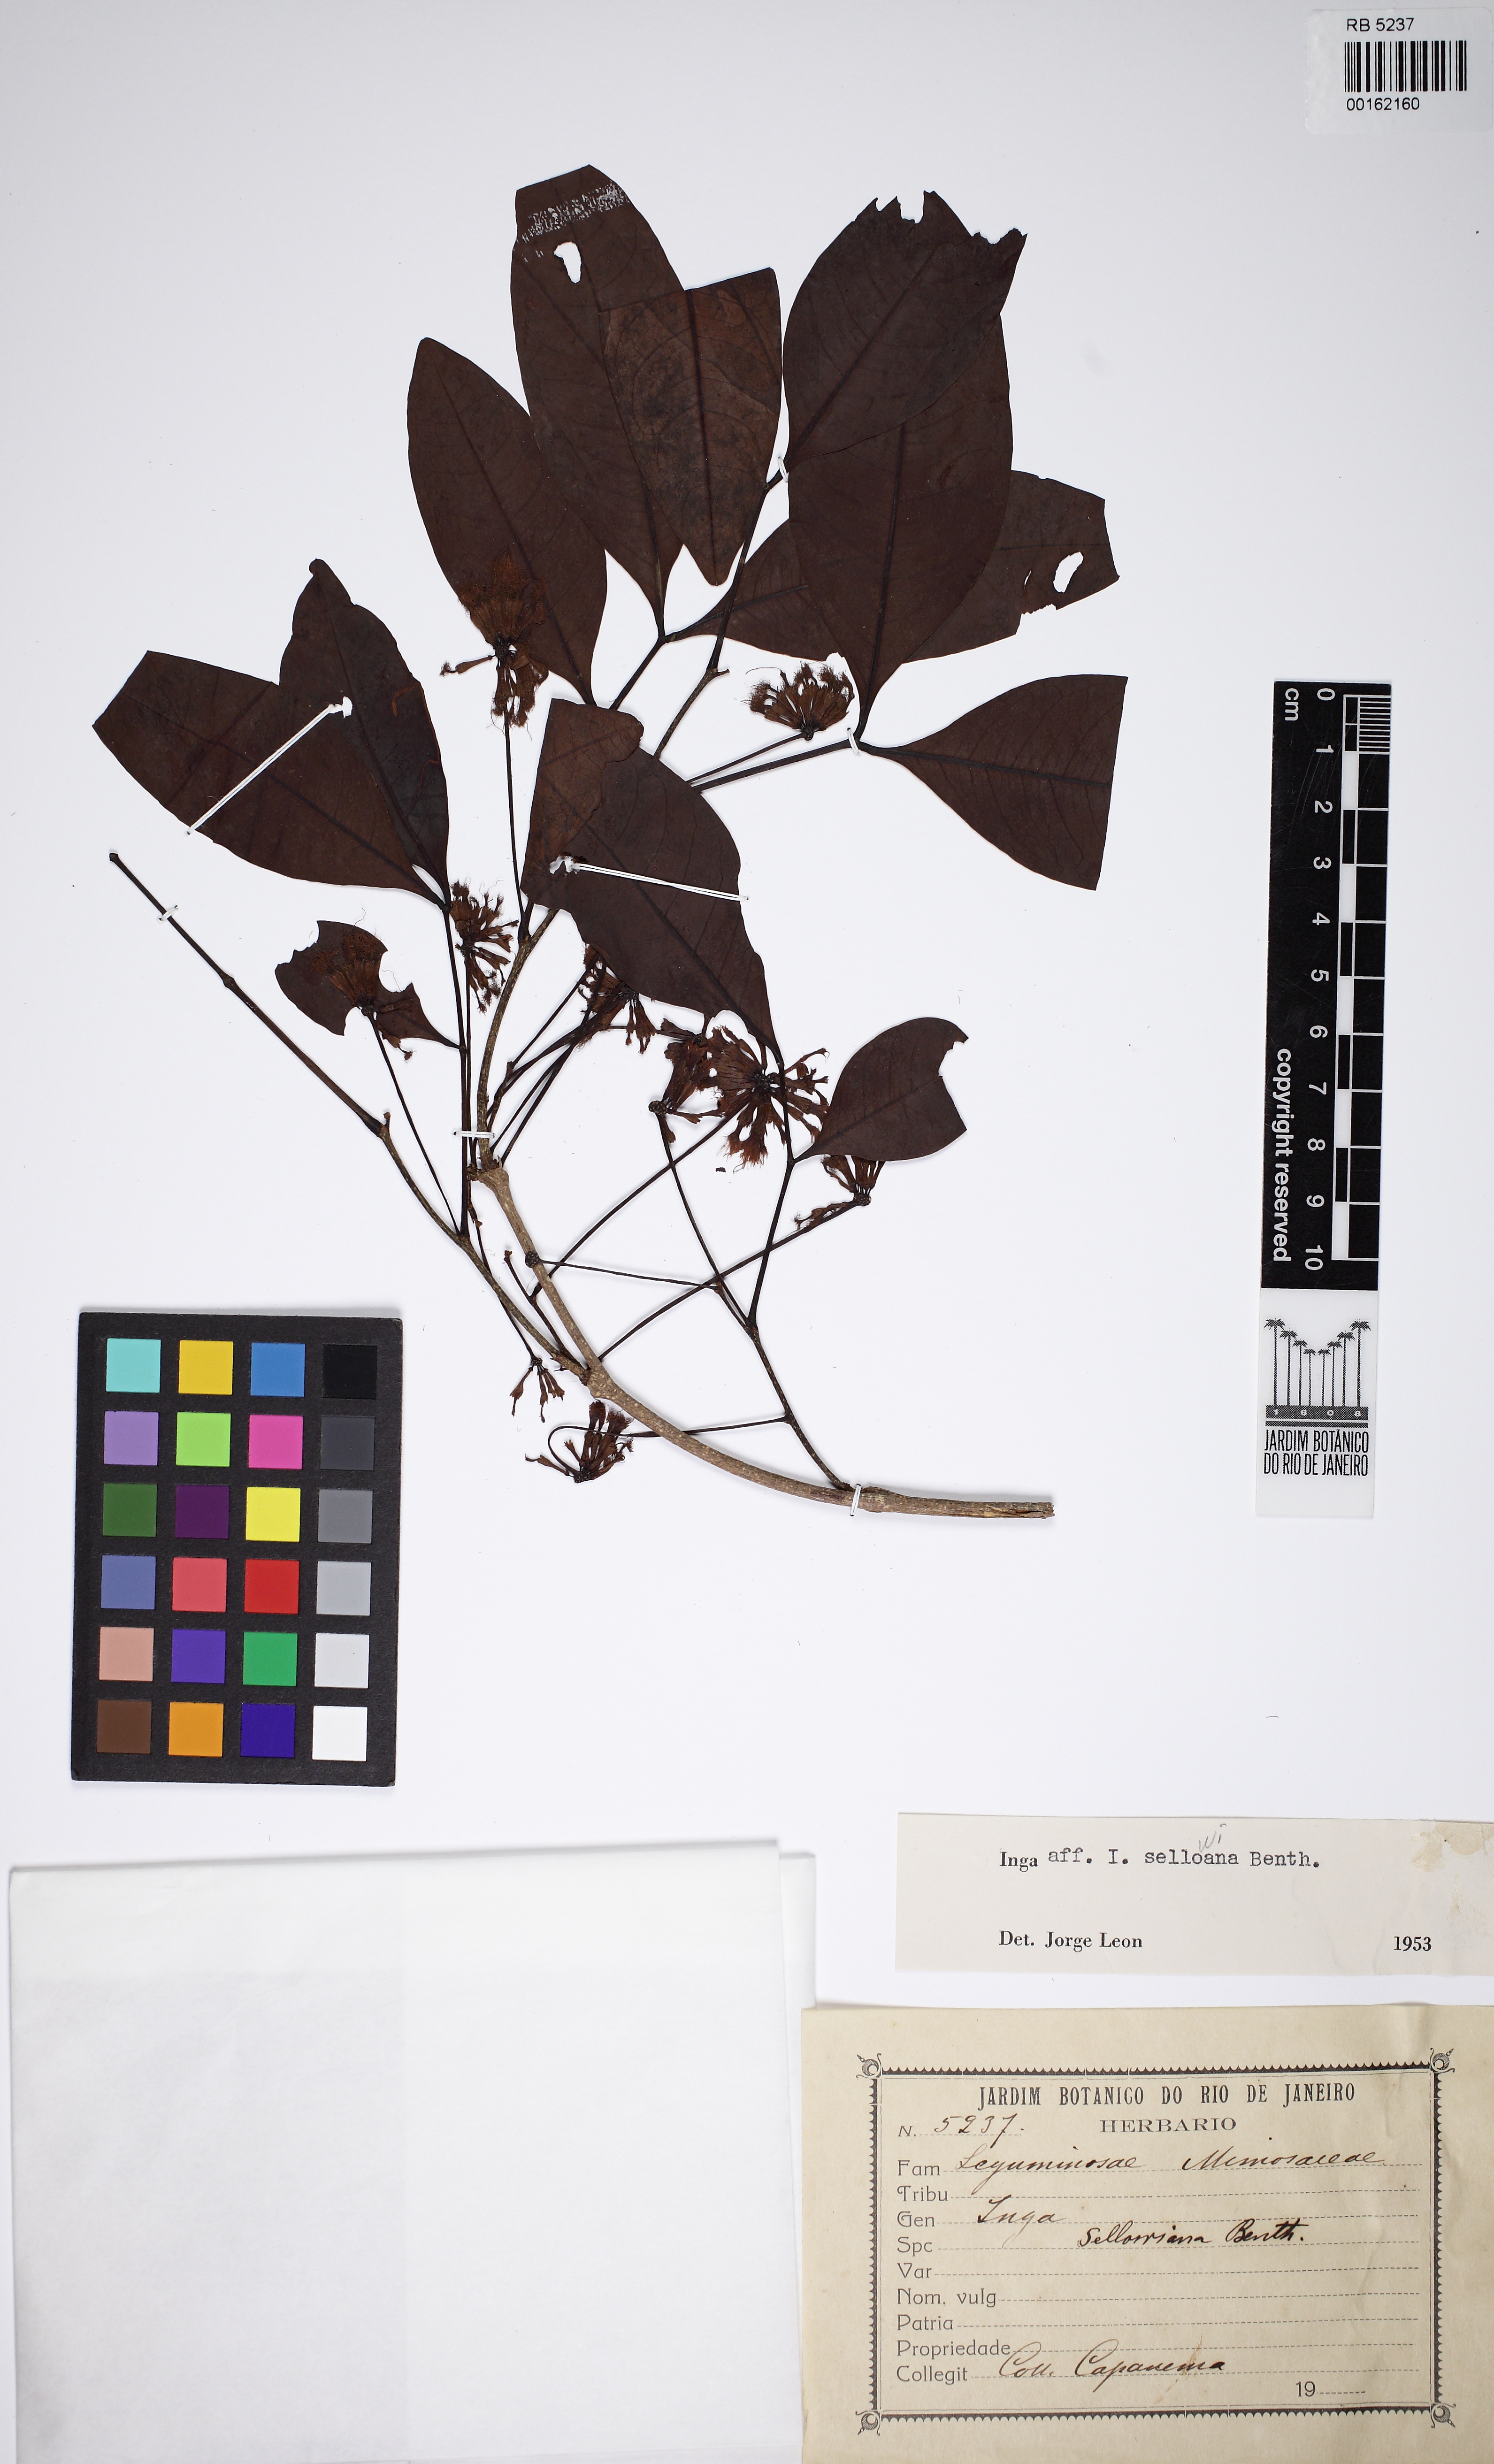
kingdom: Plantae
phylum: Tracheophyta
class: Magnoliopsida
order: Fabales
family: Fabaceae
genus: Inga
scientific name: Inga sellowiana
